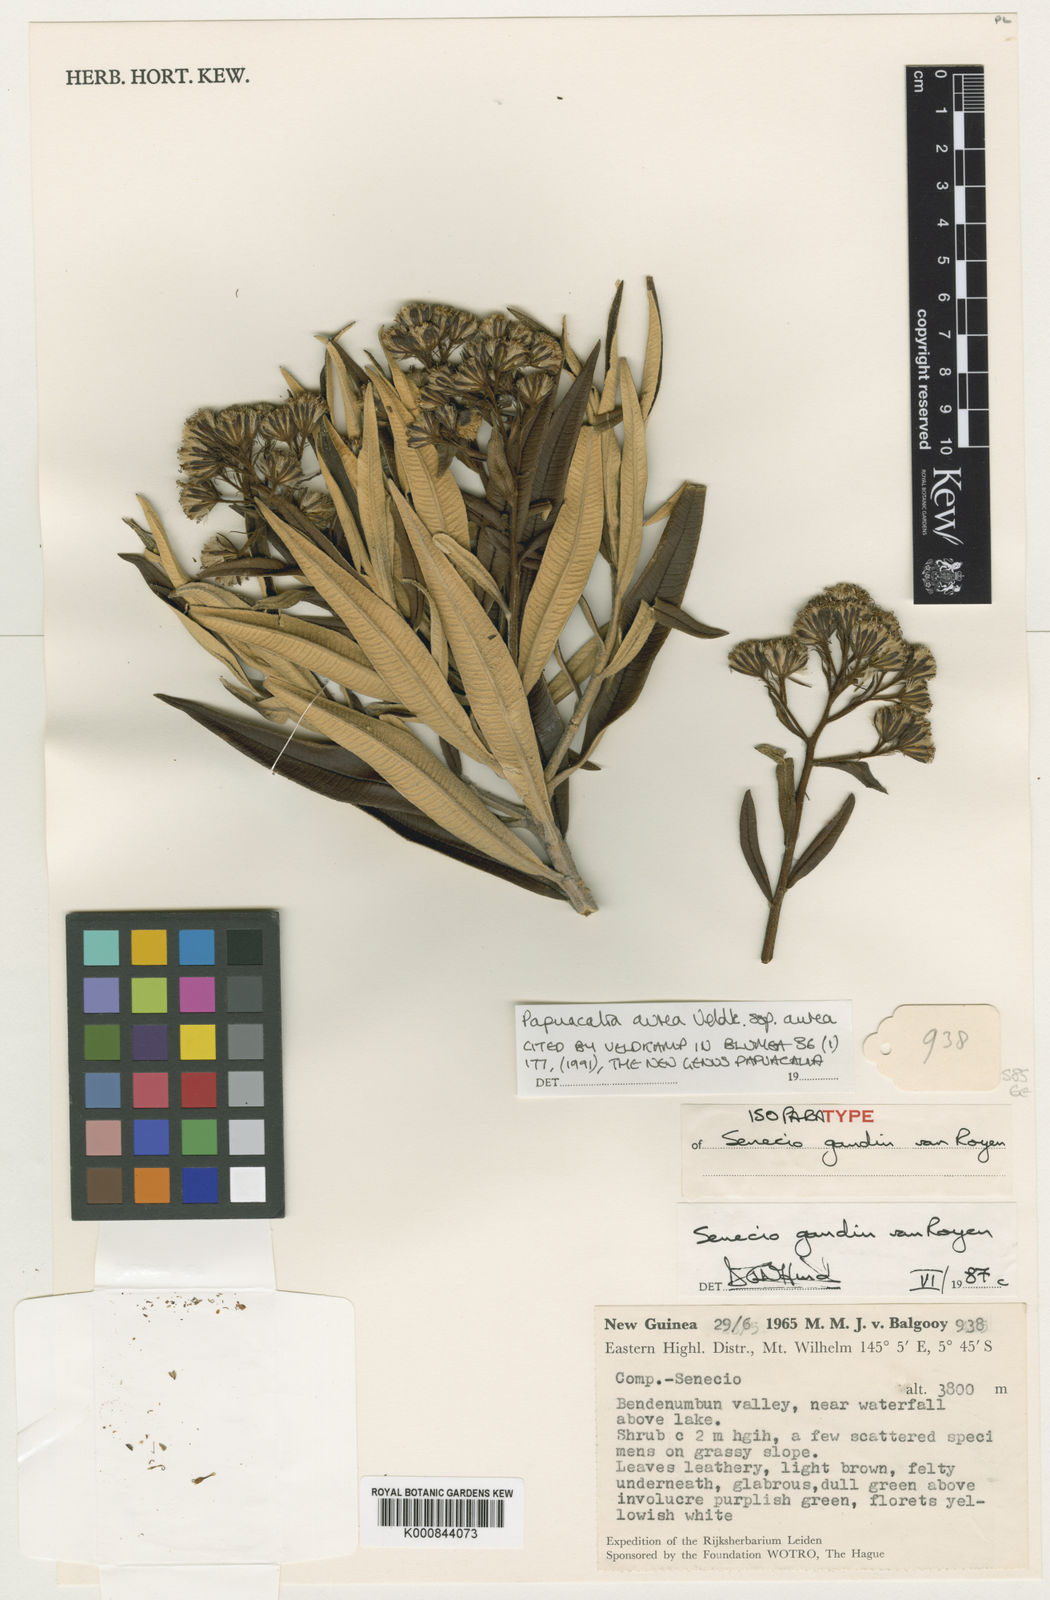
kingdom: Plantae
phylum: Tracheophyta
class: Magnoliopsida
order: Asterales
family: Asteraceae
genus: Papuacalia
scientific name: Papuacalia aurea
